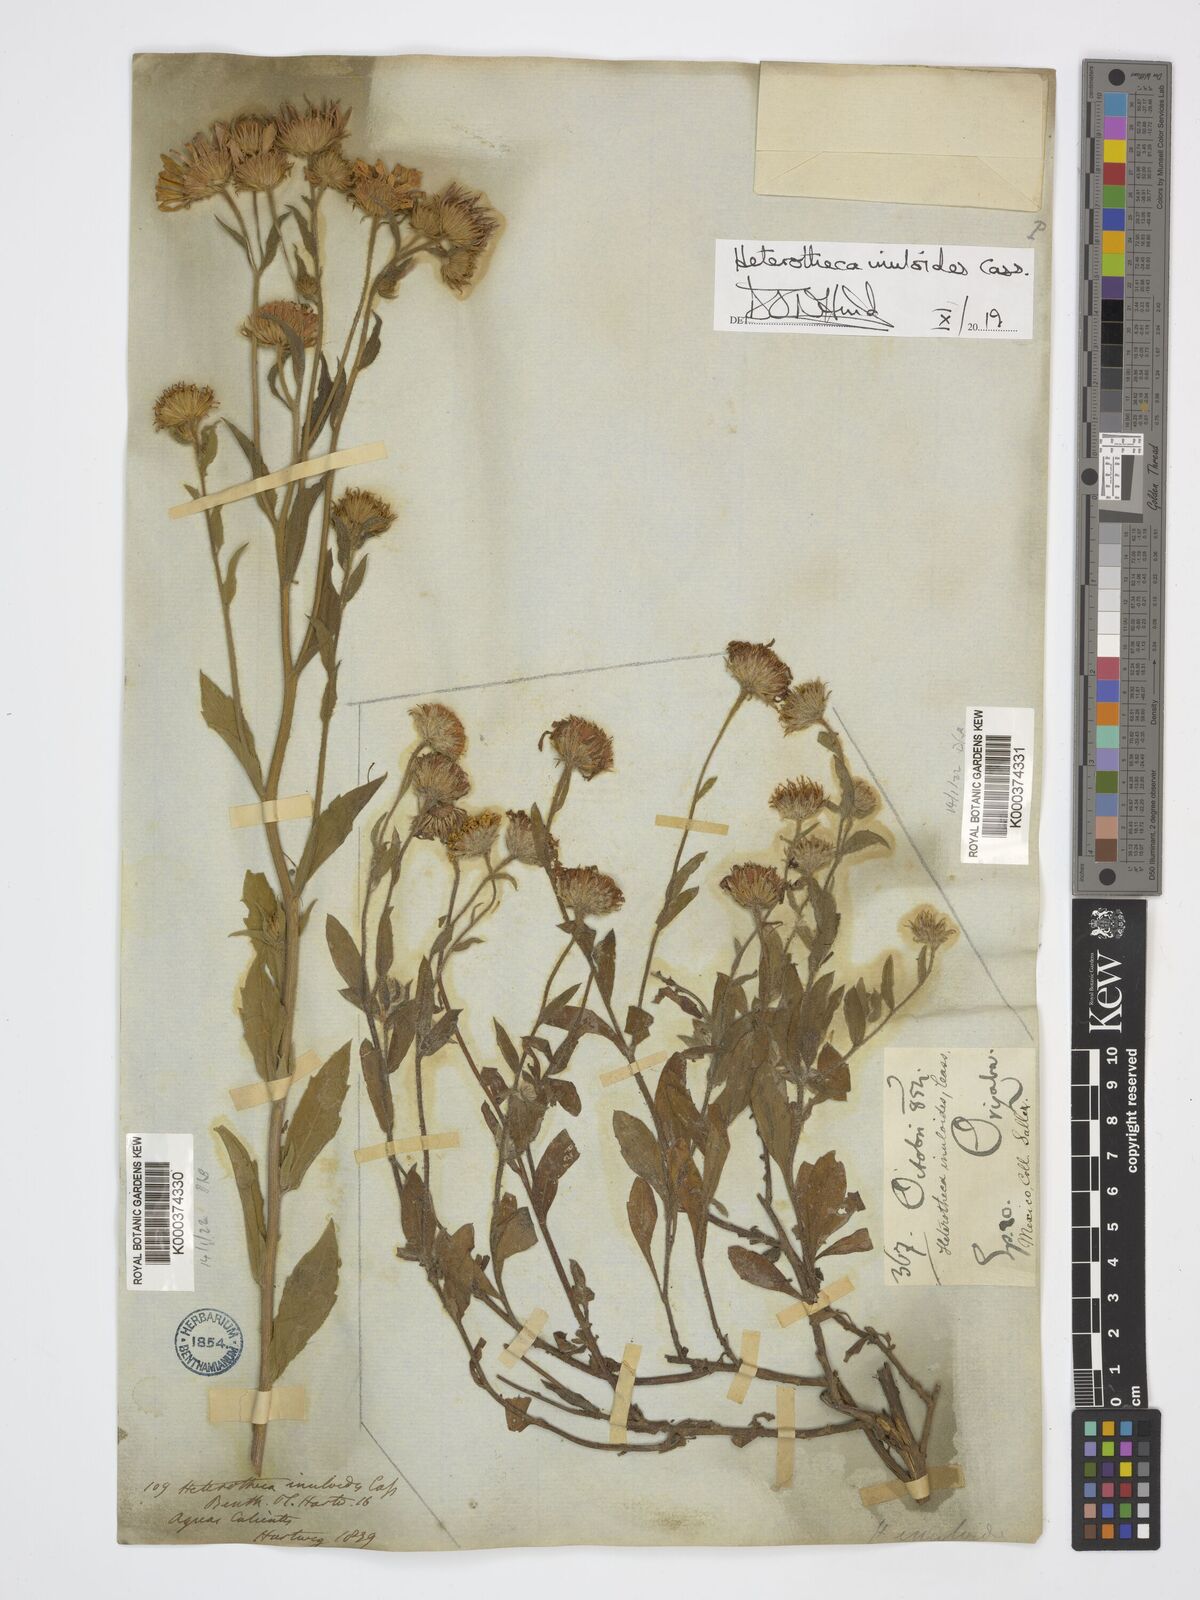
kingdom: Plantae
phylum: Tracheophyta
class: Magnoliopsida
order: Asterales
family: Asteraceae
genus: Heterotheca
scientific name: Heterotheca inuloides
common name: False arnica
